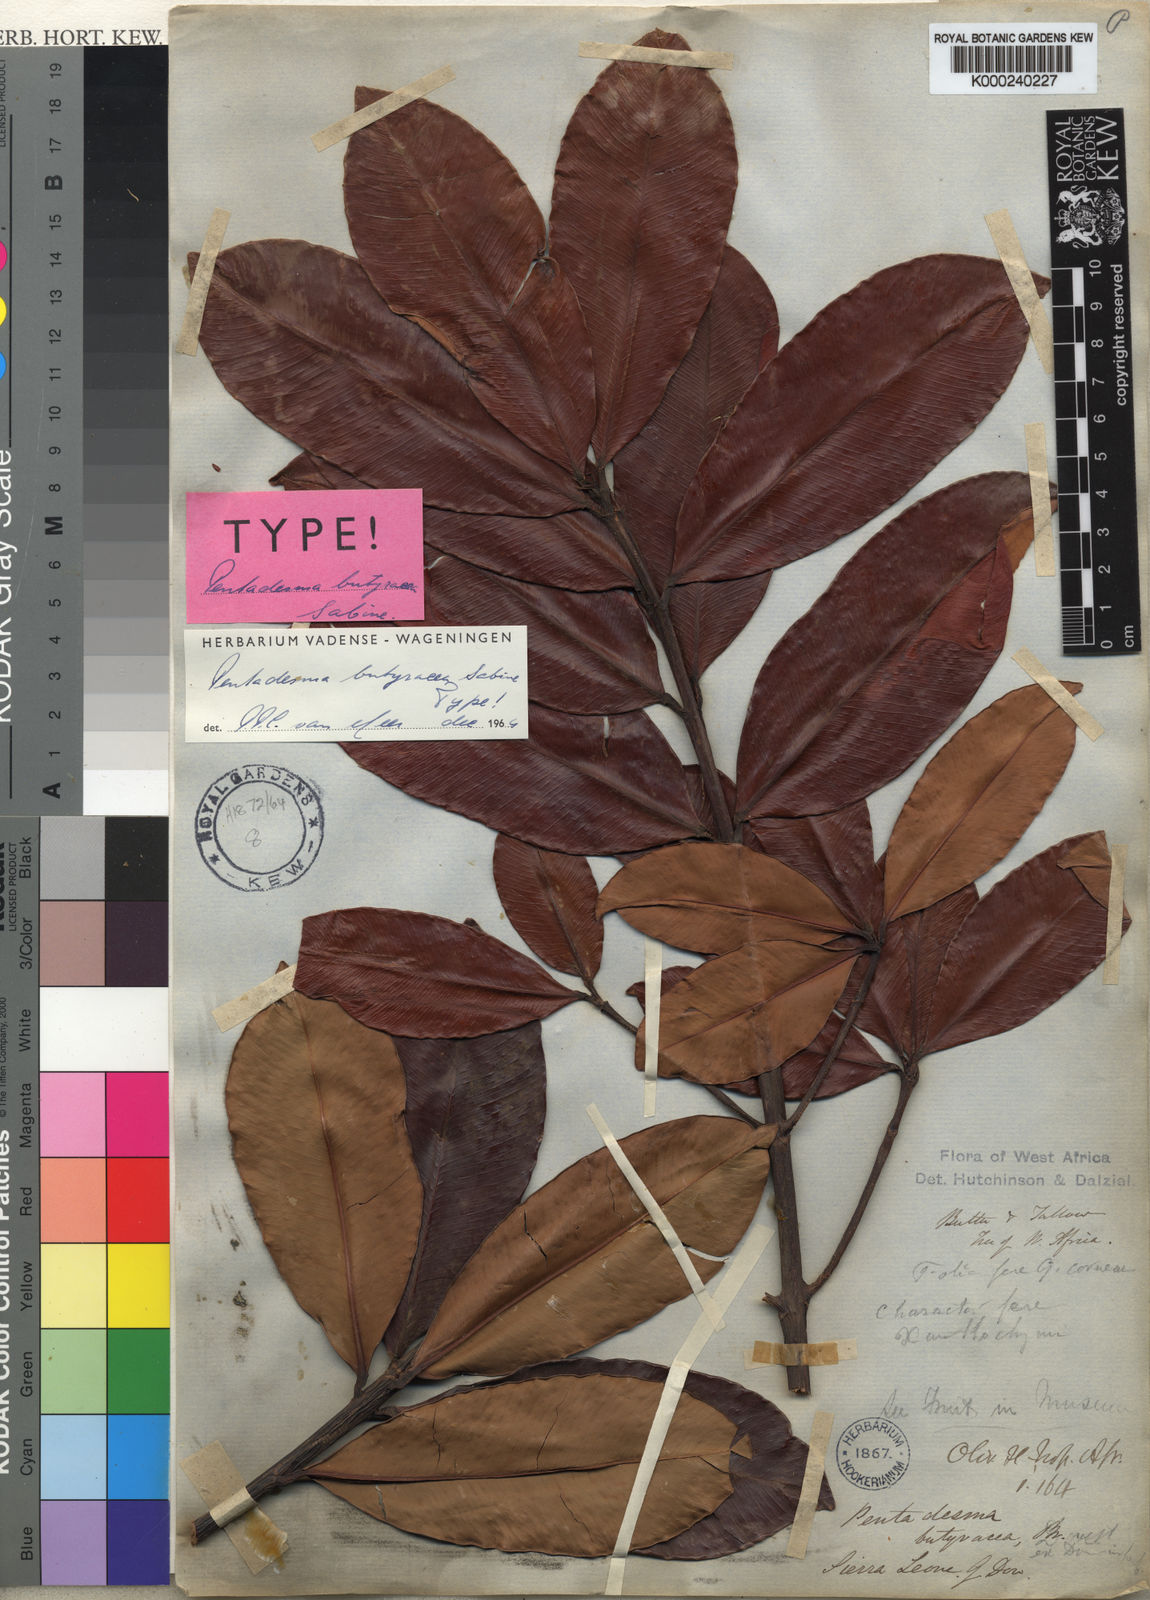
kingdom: Plantae
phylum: Tracheophyta
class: Magnoliopsida
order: Malpighiales
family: Clusiaceae
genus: Pentadesma
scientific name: Pentadesma butyracea
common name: Buttertree
